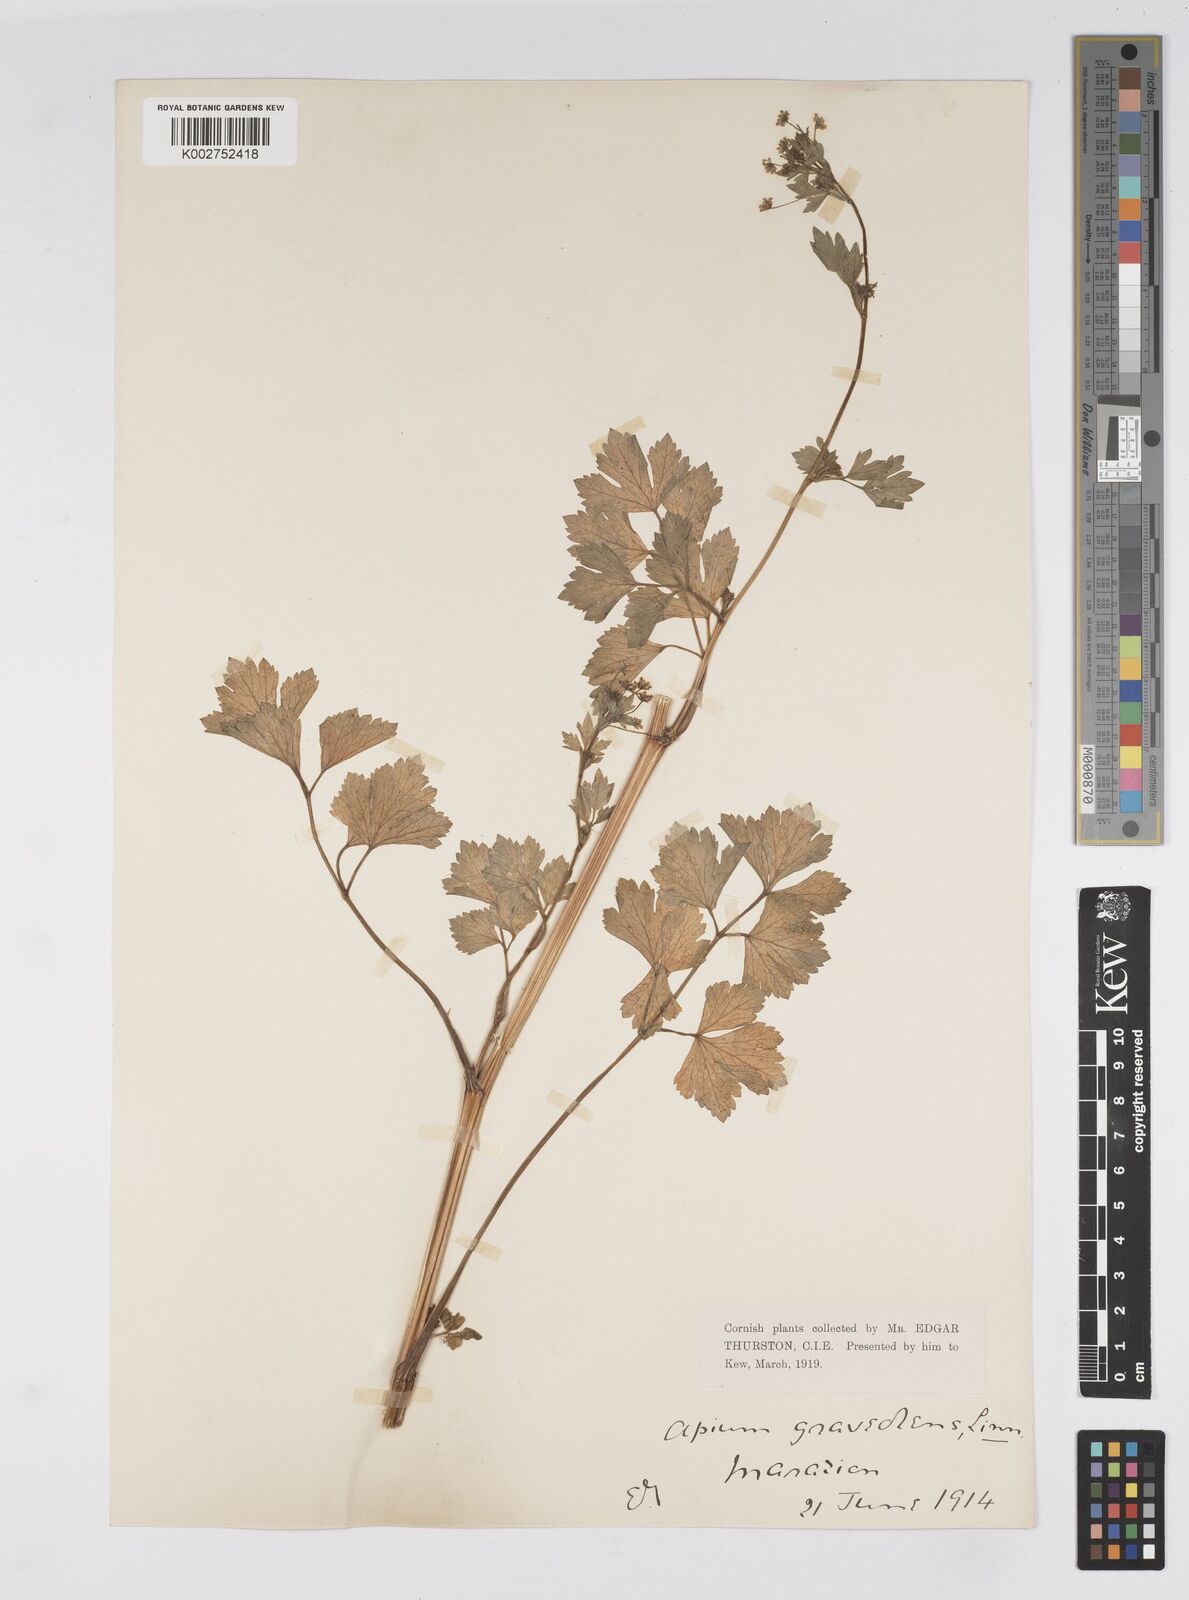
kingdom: Plantae
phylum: Tracheophyta
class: Magnoliopsida
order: Apiales
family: Apiaceae
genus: Apium
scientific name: Apium graveolens
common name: Wild celery
